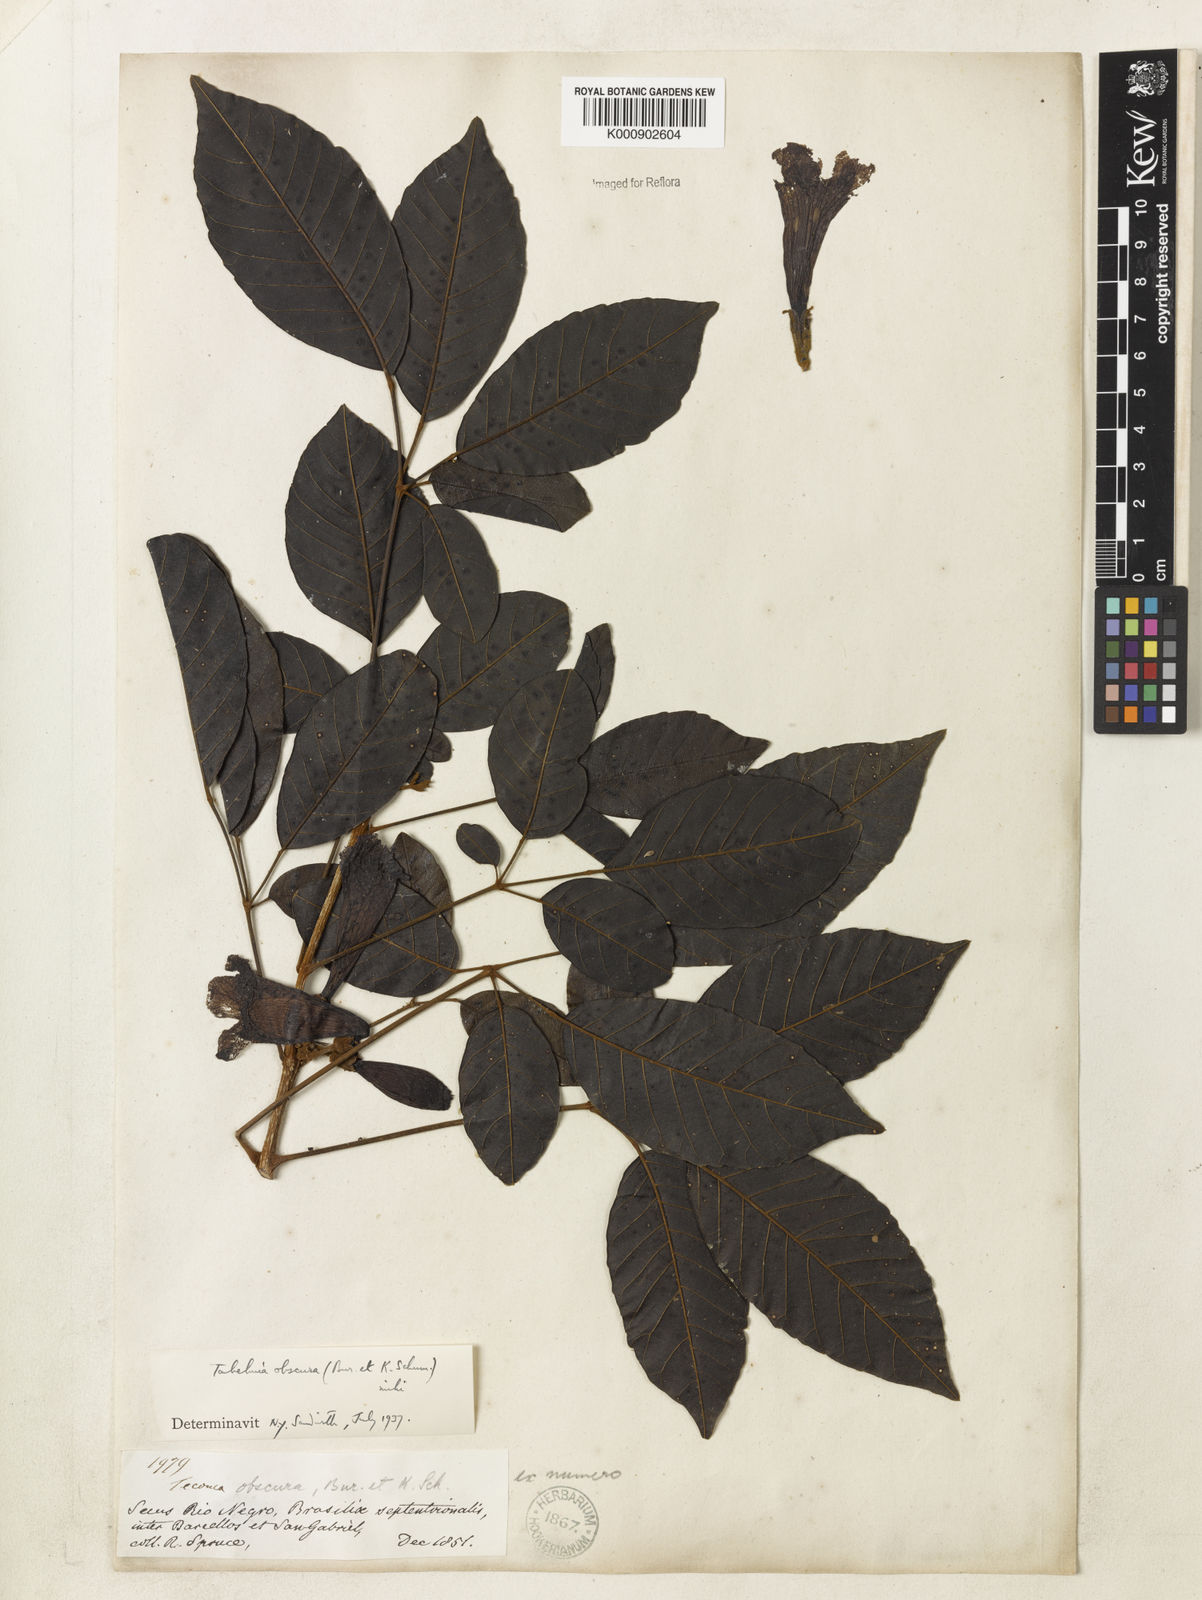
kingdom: Plantae
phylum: Tracheophyta
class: Magnoliopsida
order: Lamiales
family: Bignoniaceae
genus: Handroanthus
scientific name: Handroanthus obscurus
